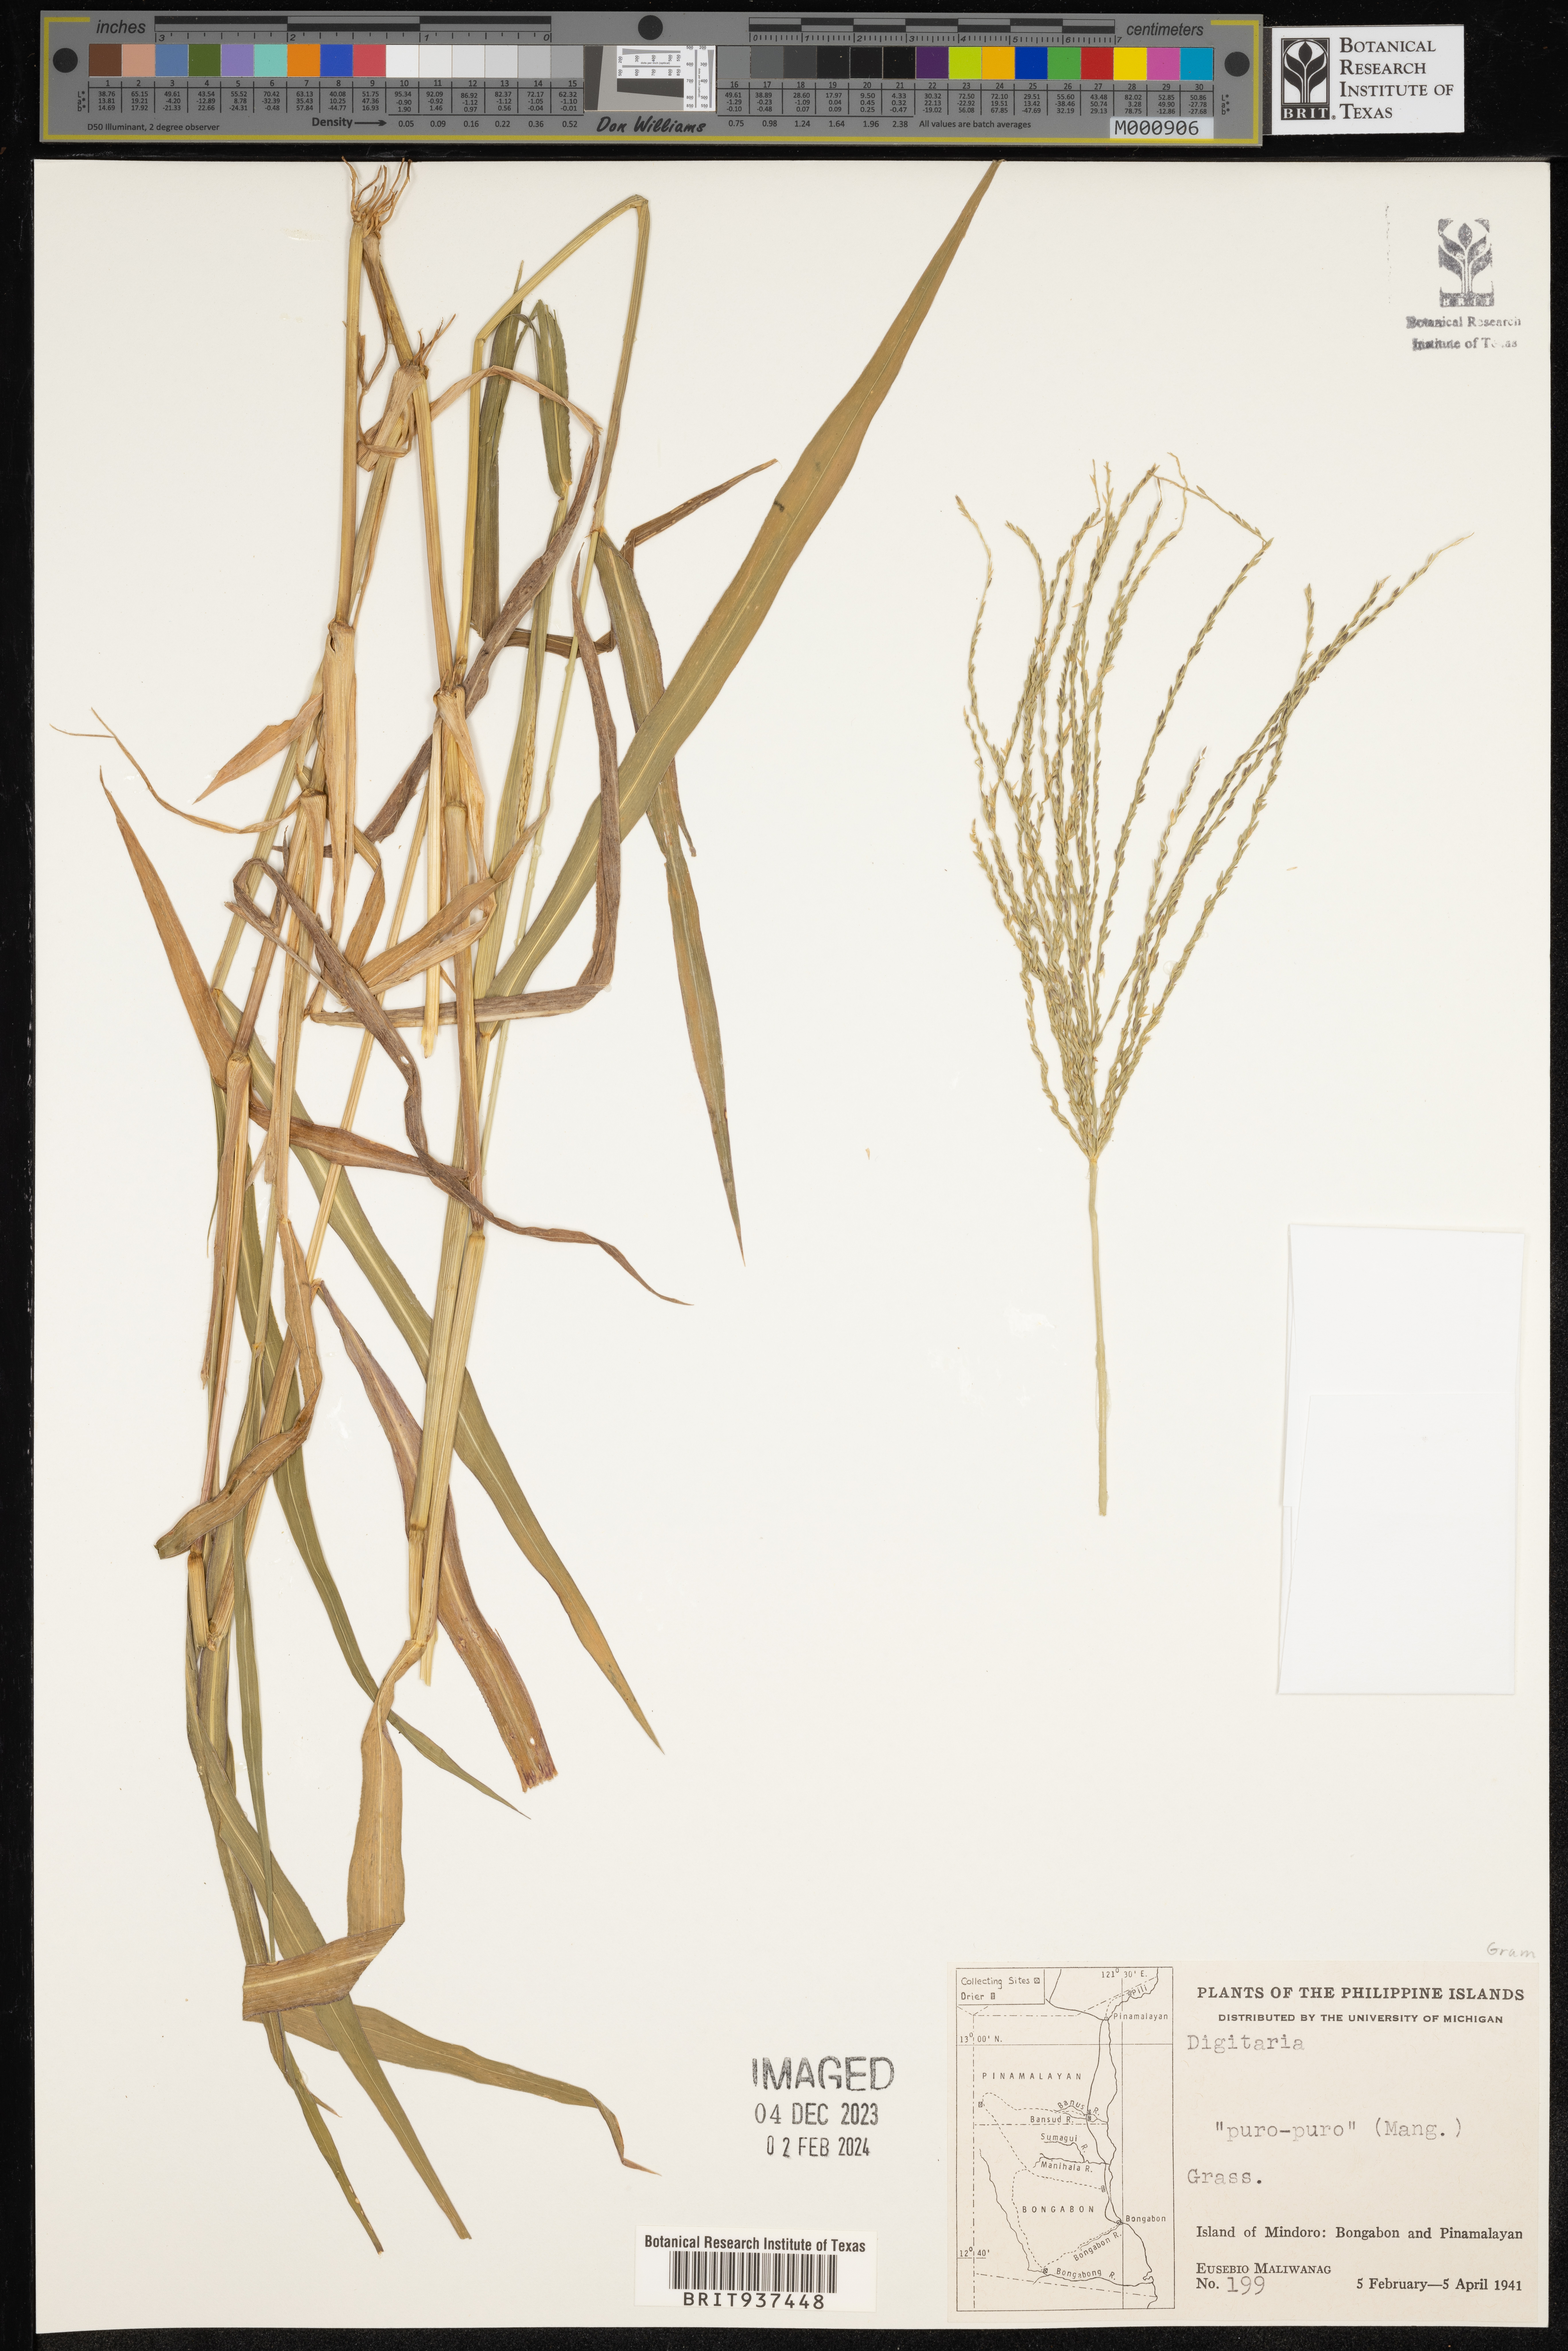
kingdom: Plantae
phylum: Tracheophyta
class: Liliopsida
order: Poales
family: Poaceae
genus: Digitaria
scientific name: Digitaria
